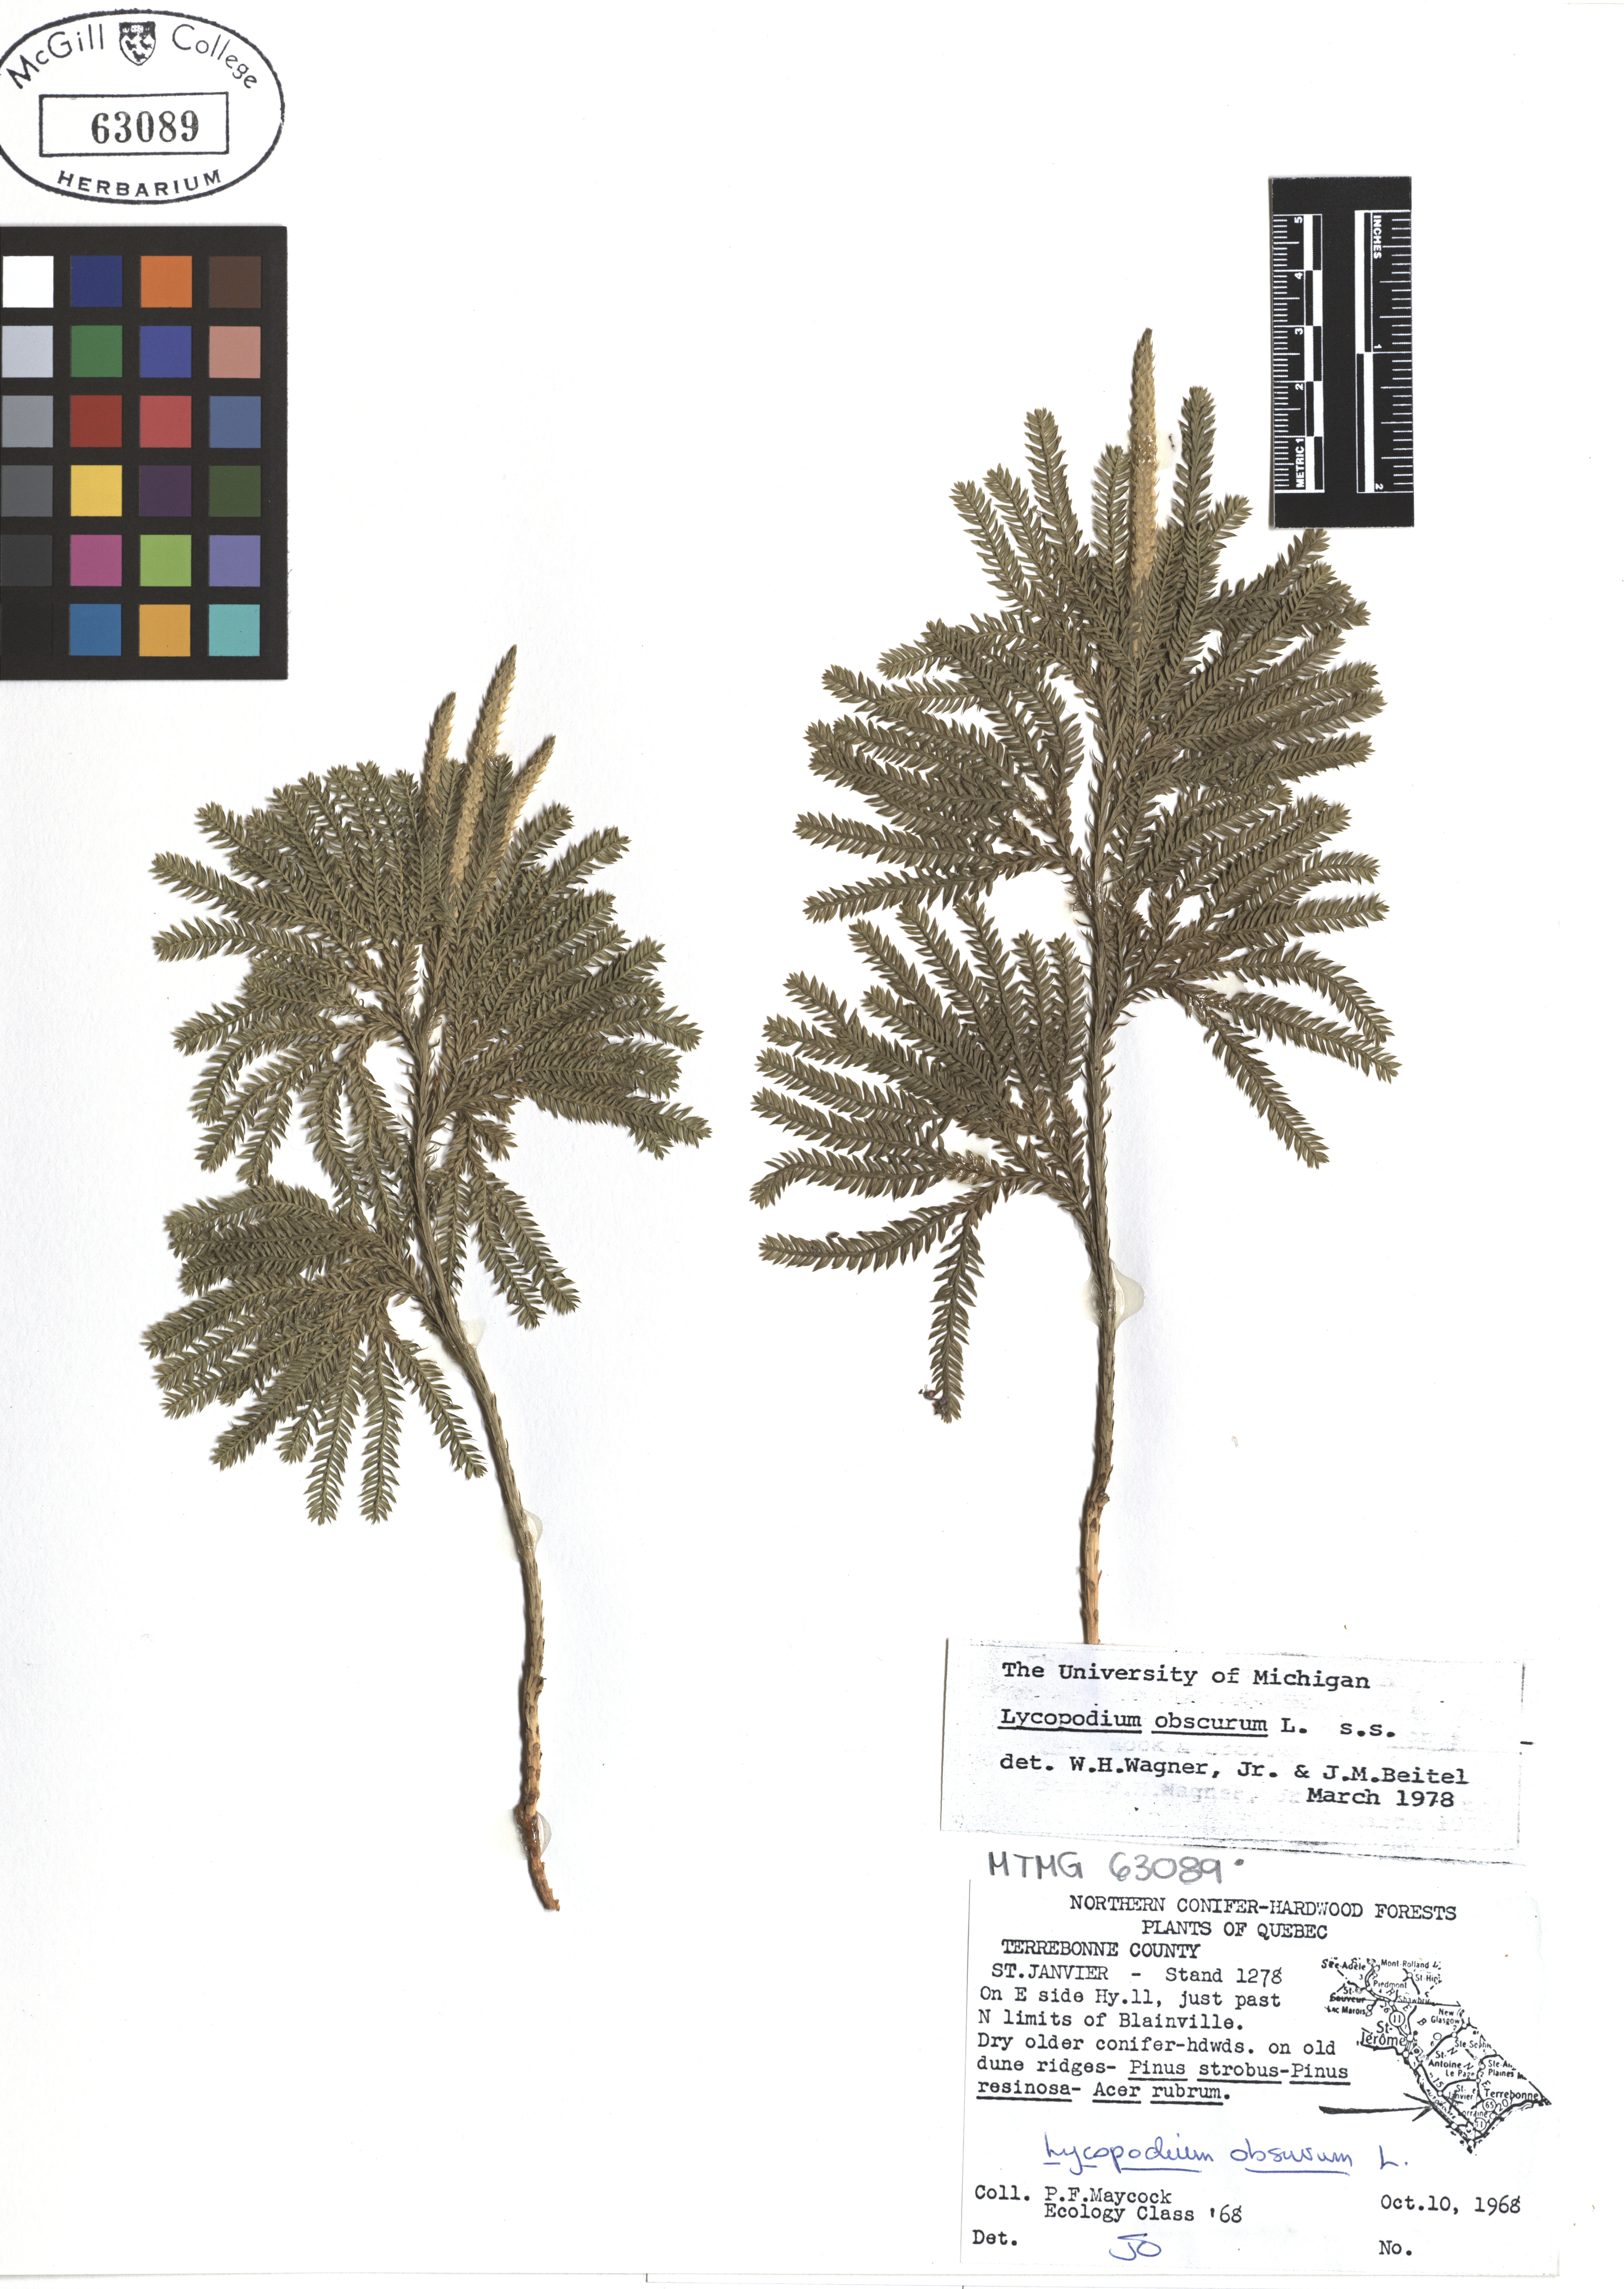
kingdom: Plantae
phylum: Tracheophyta
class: Lycopodiopsida
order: Lycopodiales
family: Lycopodiaceae
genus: Dendrolycopodium
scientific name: Dendrolycopodium obscurum
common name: Common ground-pine
